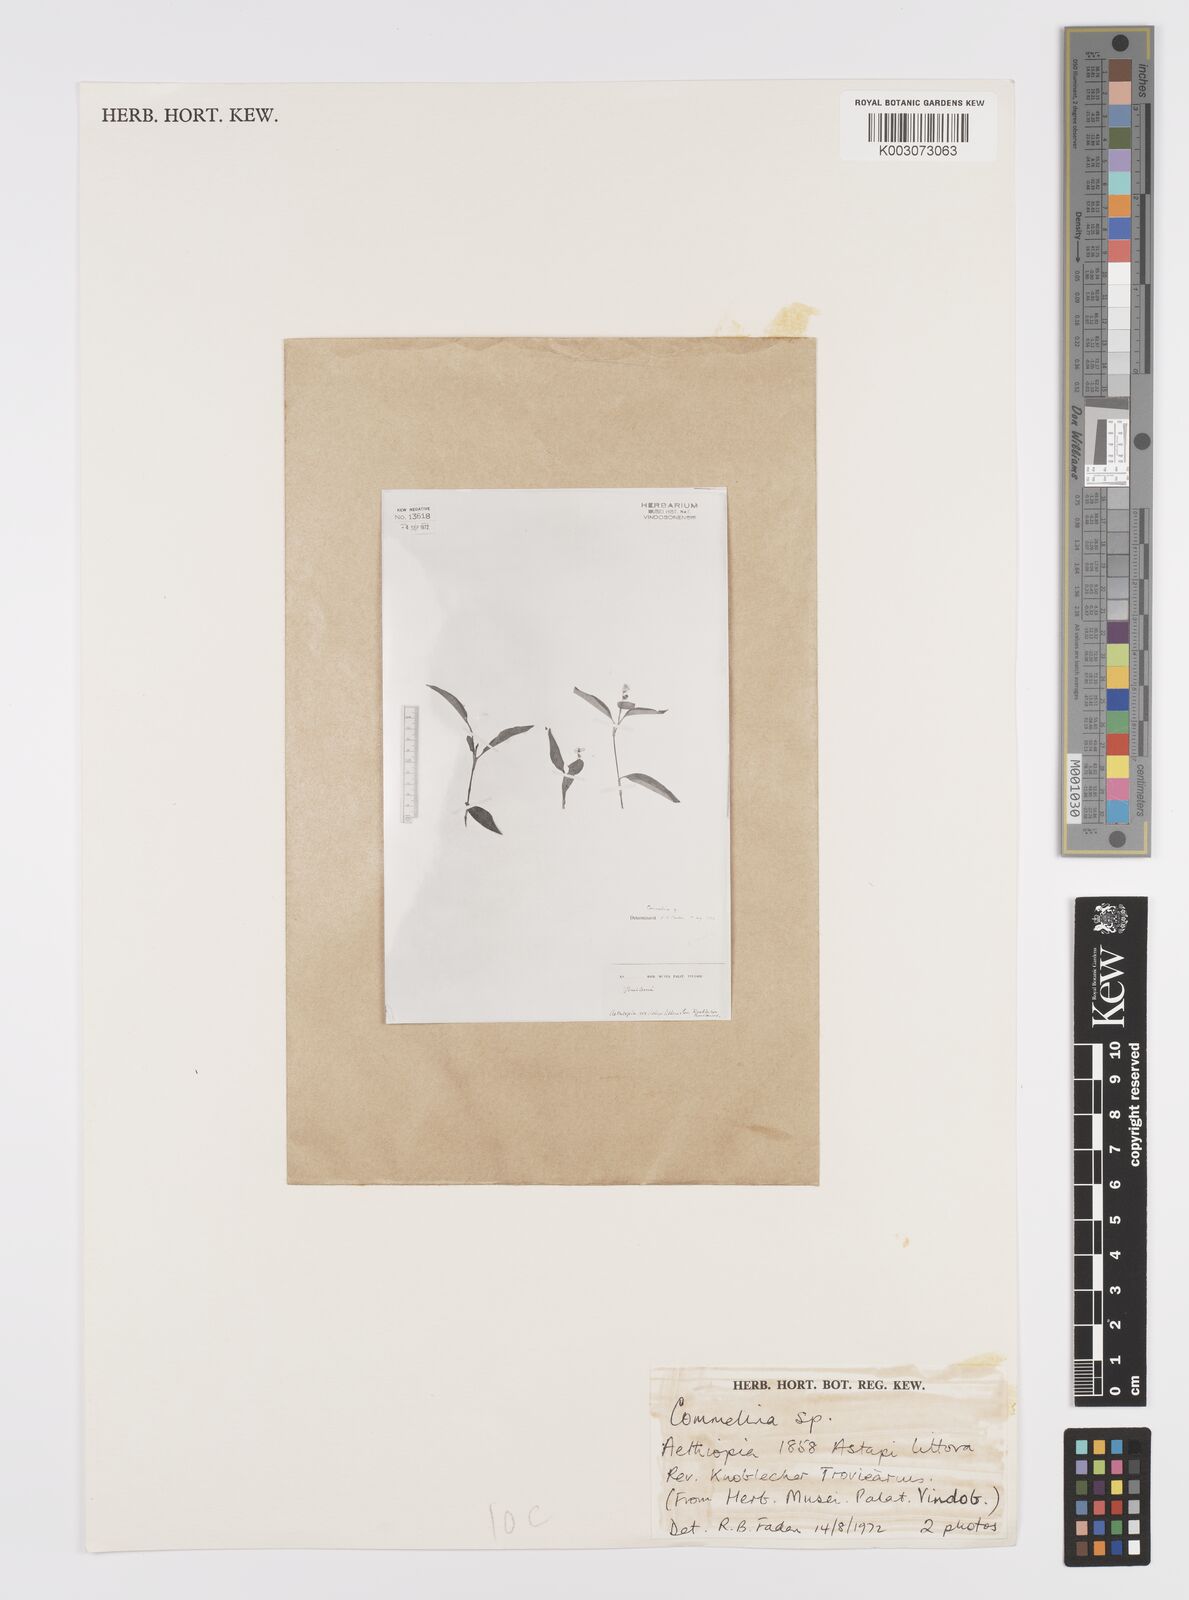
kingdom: Plantae
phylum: Tracheophyta
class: Liliopsida
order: Commelinales
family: Commelinaceae
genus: Commelina
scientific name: Commelina
